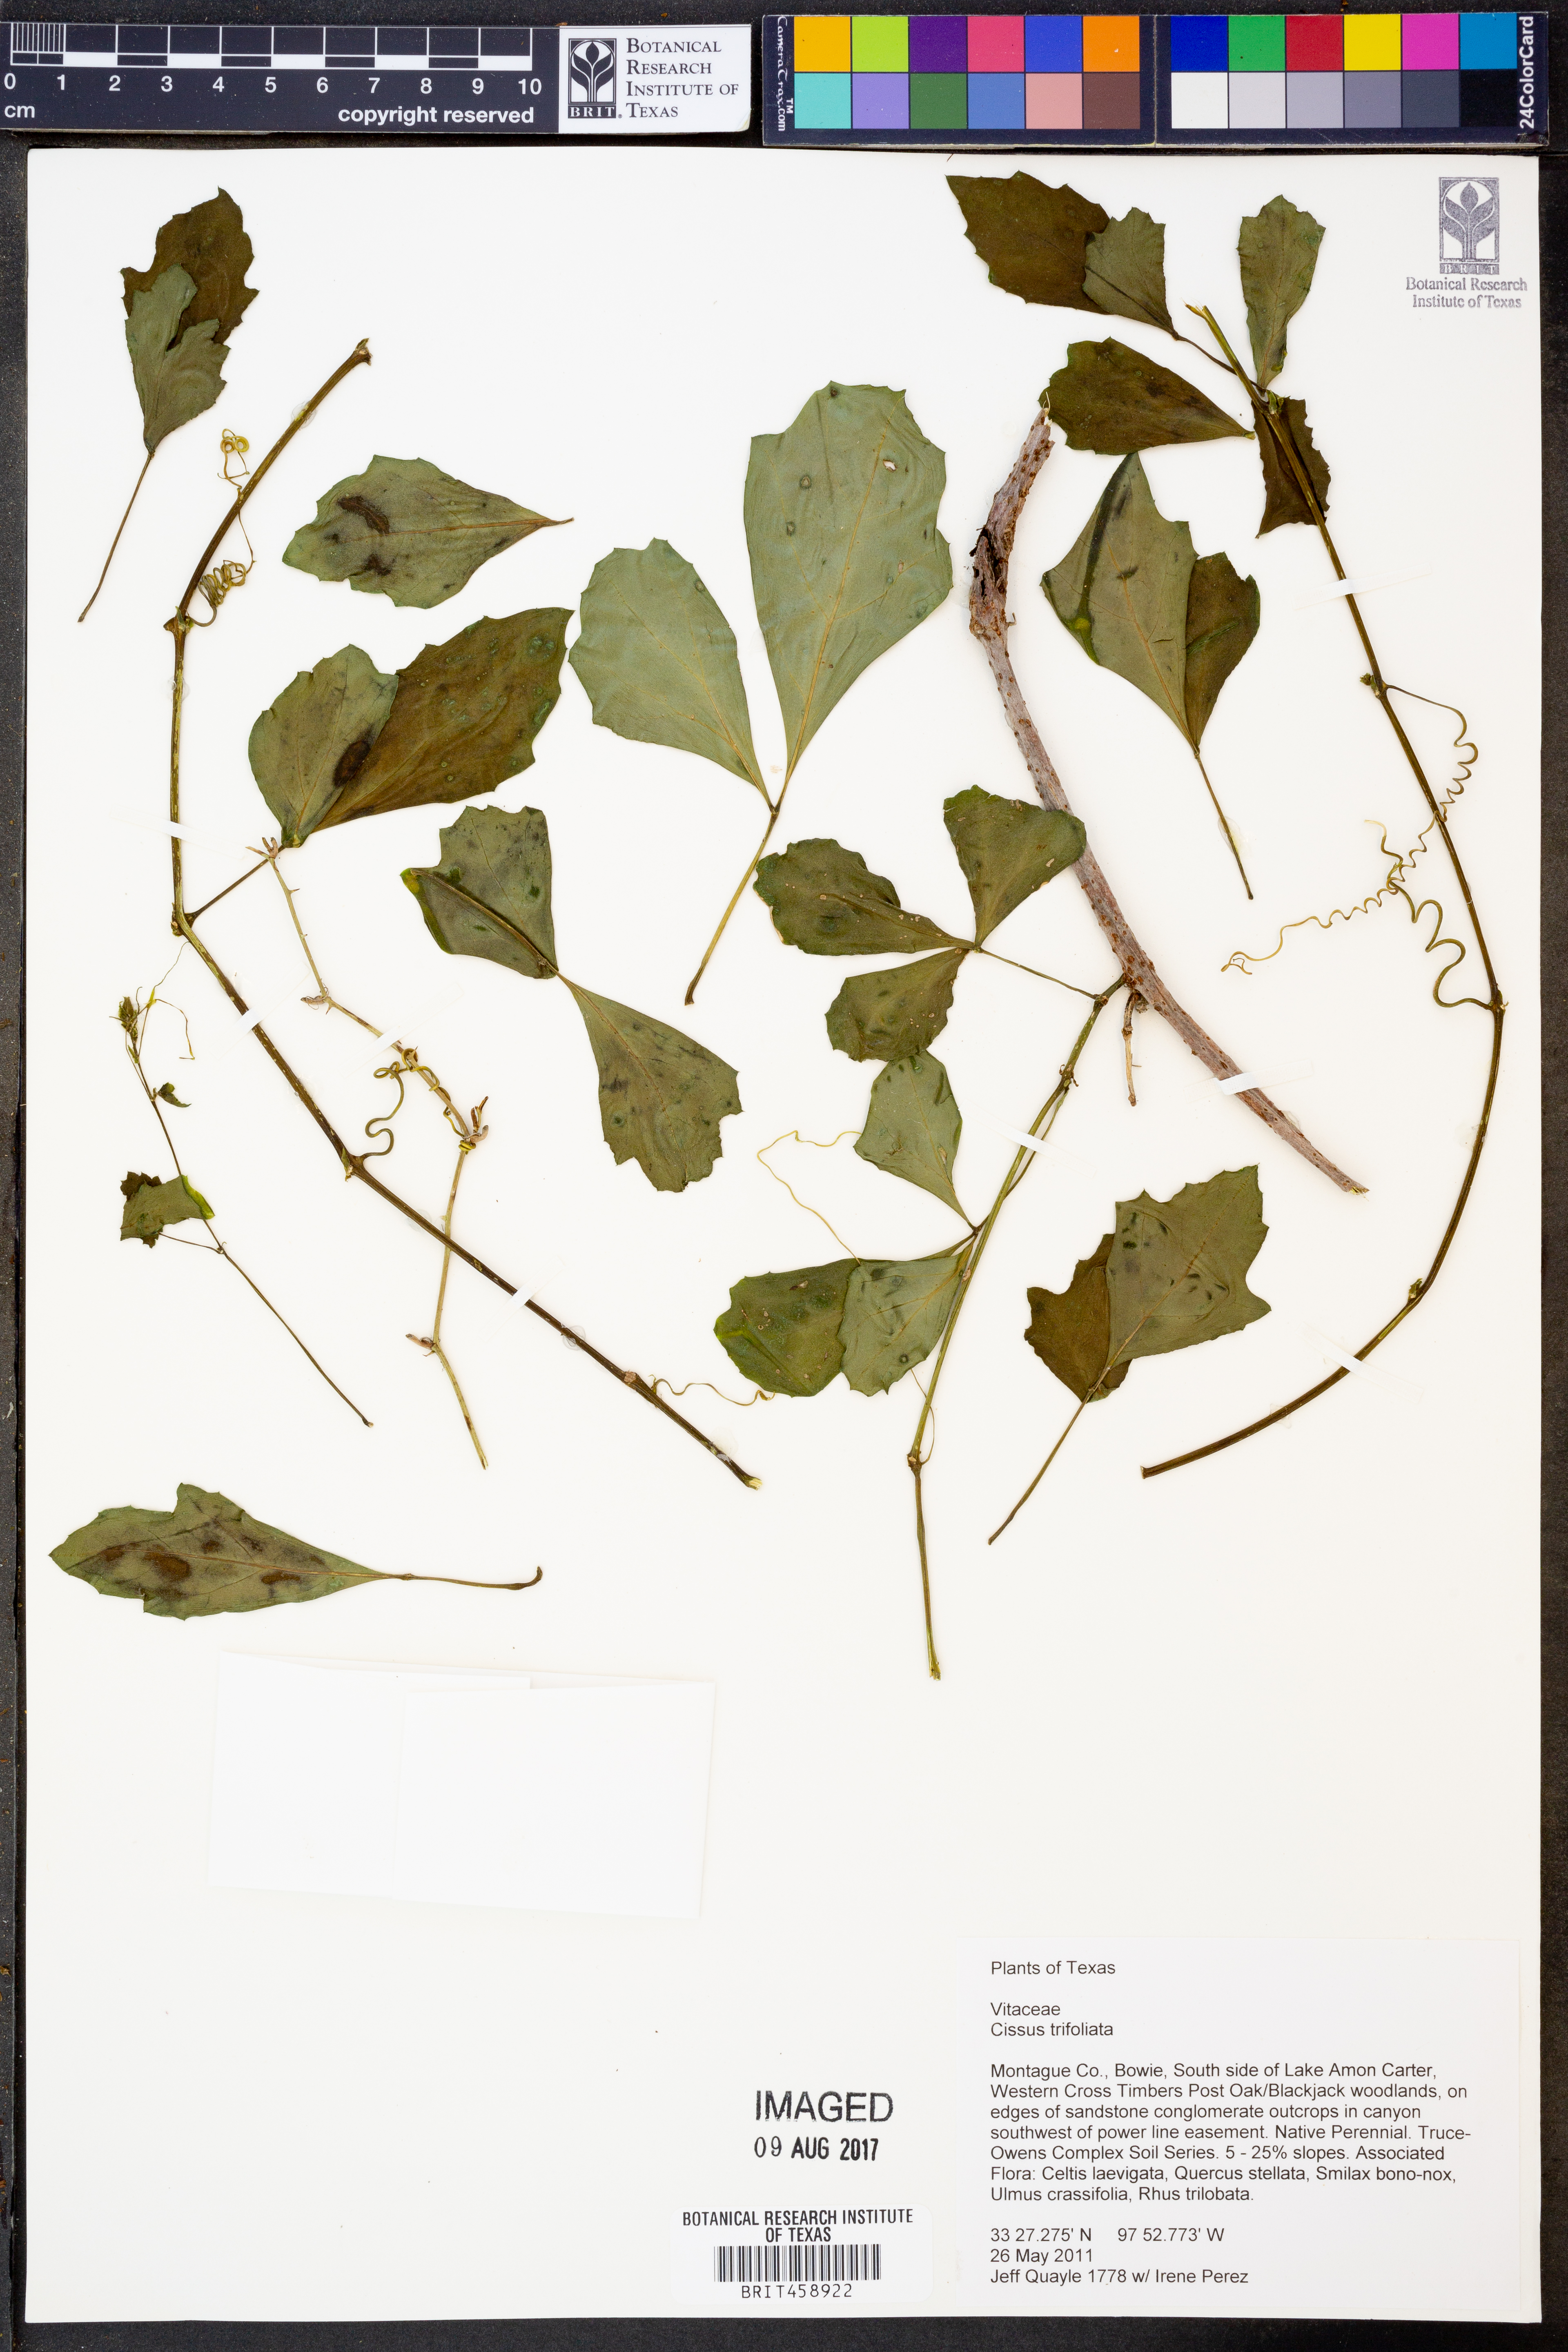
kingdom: Plantae
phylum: Tracheophyta
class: Magnoliopsida
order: Vitales
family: Vitaceae
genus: Cissus
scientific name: Cissus trifoliata
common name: Vine-sorrel
